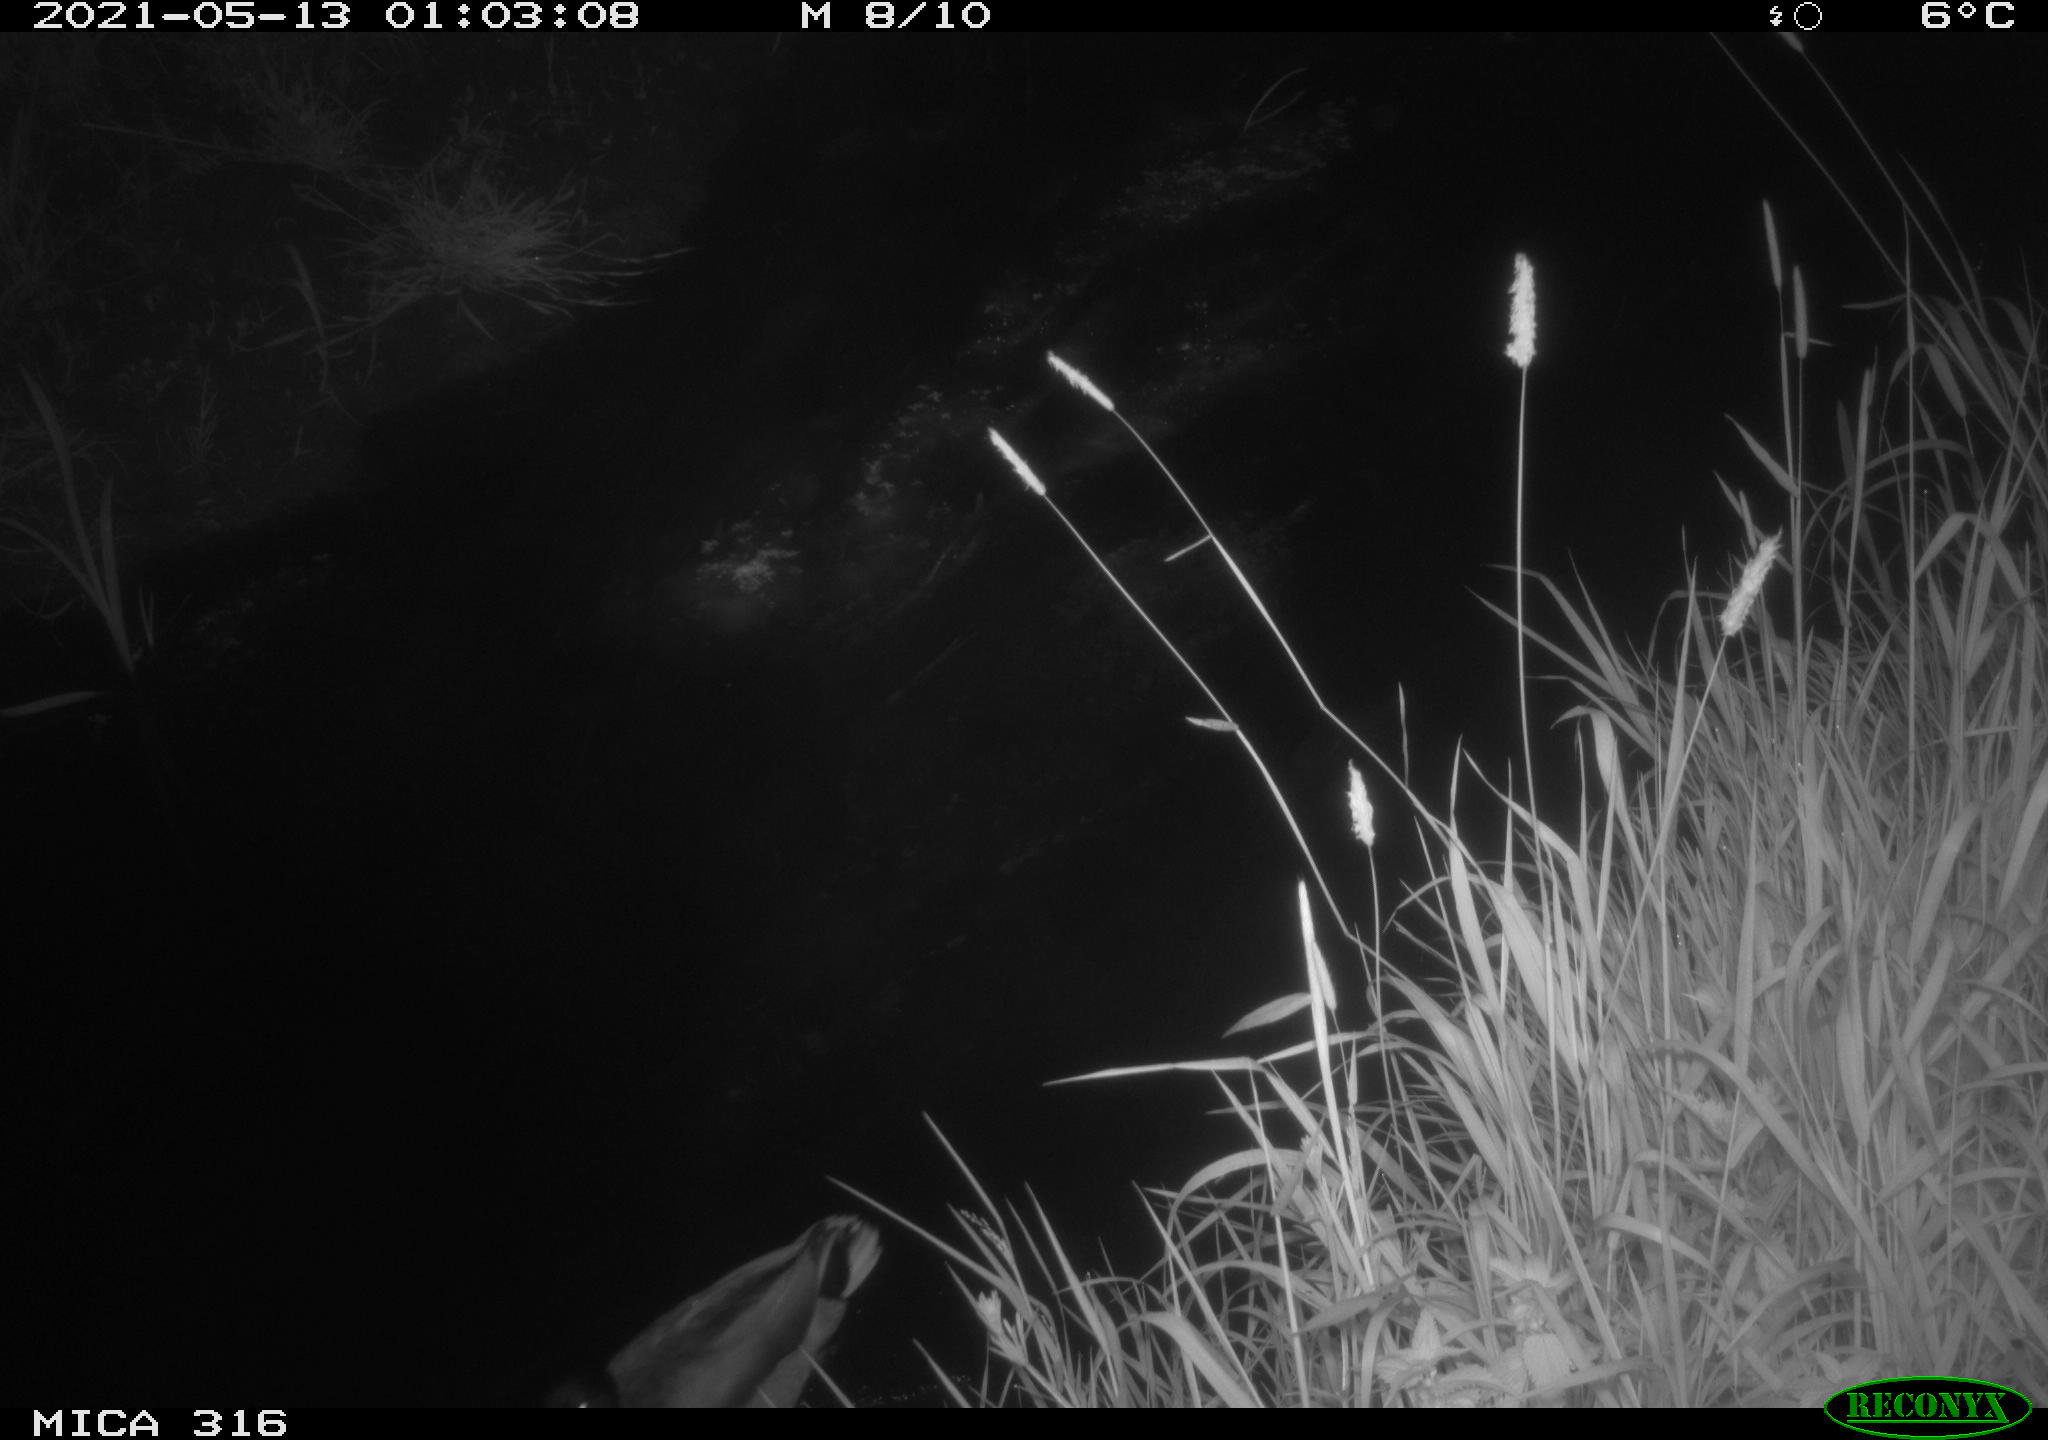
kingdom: Animalia
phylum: Chordata
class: Aves
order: Anseriformes
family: Anatidae
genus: Anas
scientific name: Anas platyrhynchos
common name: Mallard
